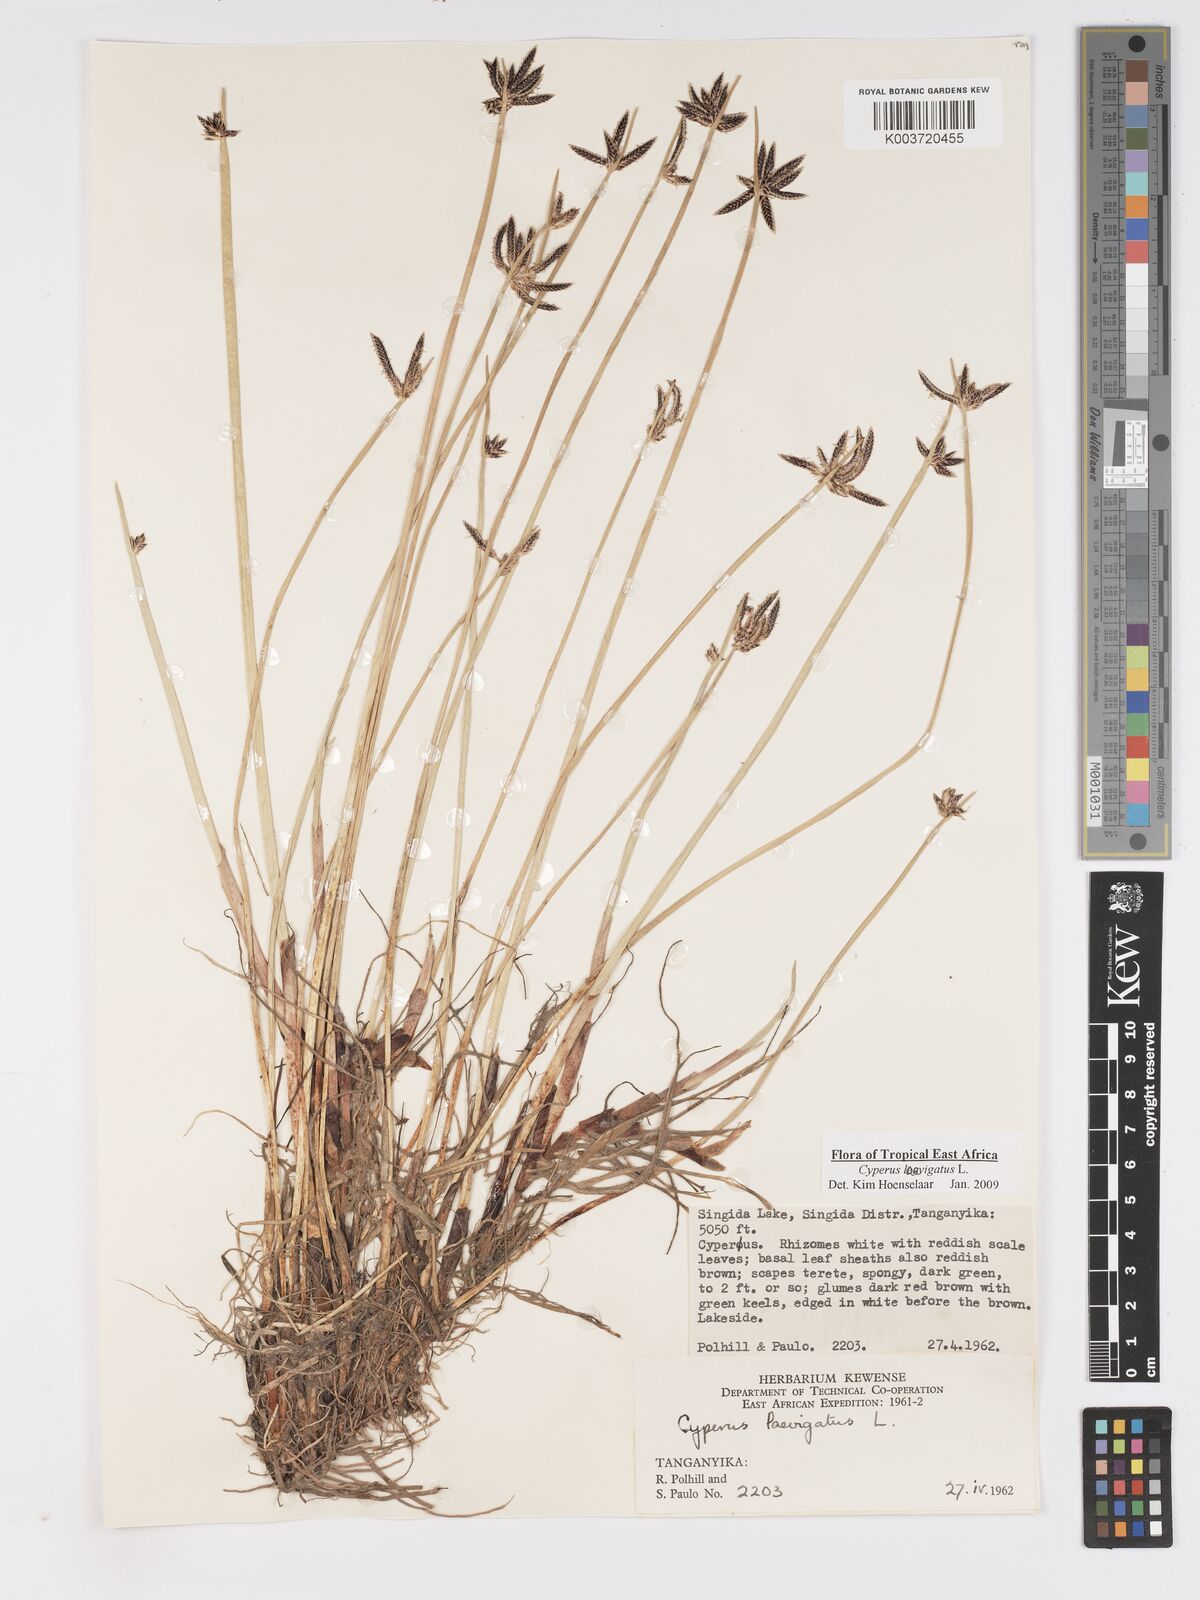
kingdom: Plantae
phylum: Tracheophyta
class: Liliopsida
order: Poales
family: Cyperaceae
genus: Cyperus
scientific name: Cyperus laevigatus
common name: Smooth flat sedge
